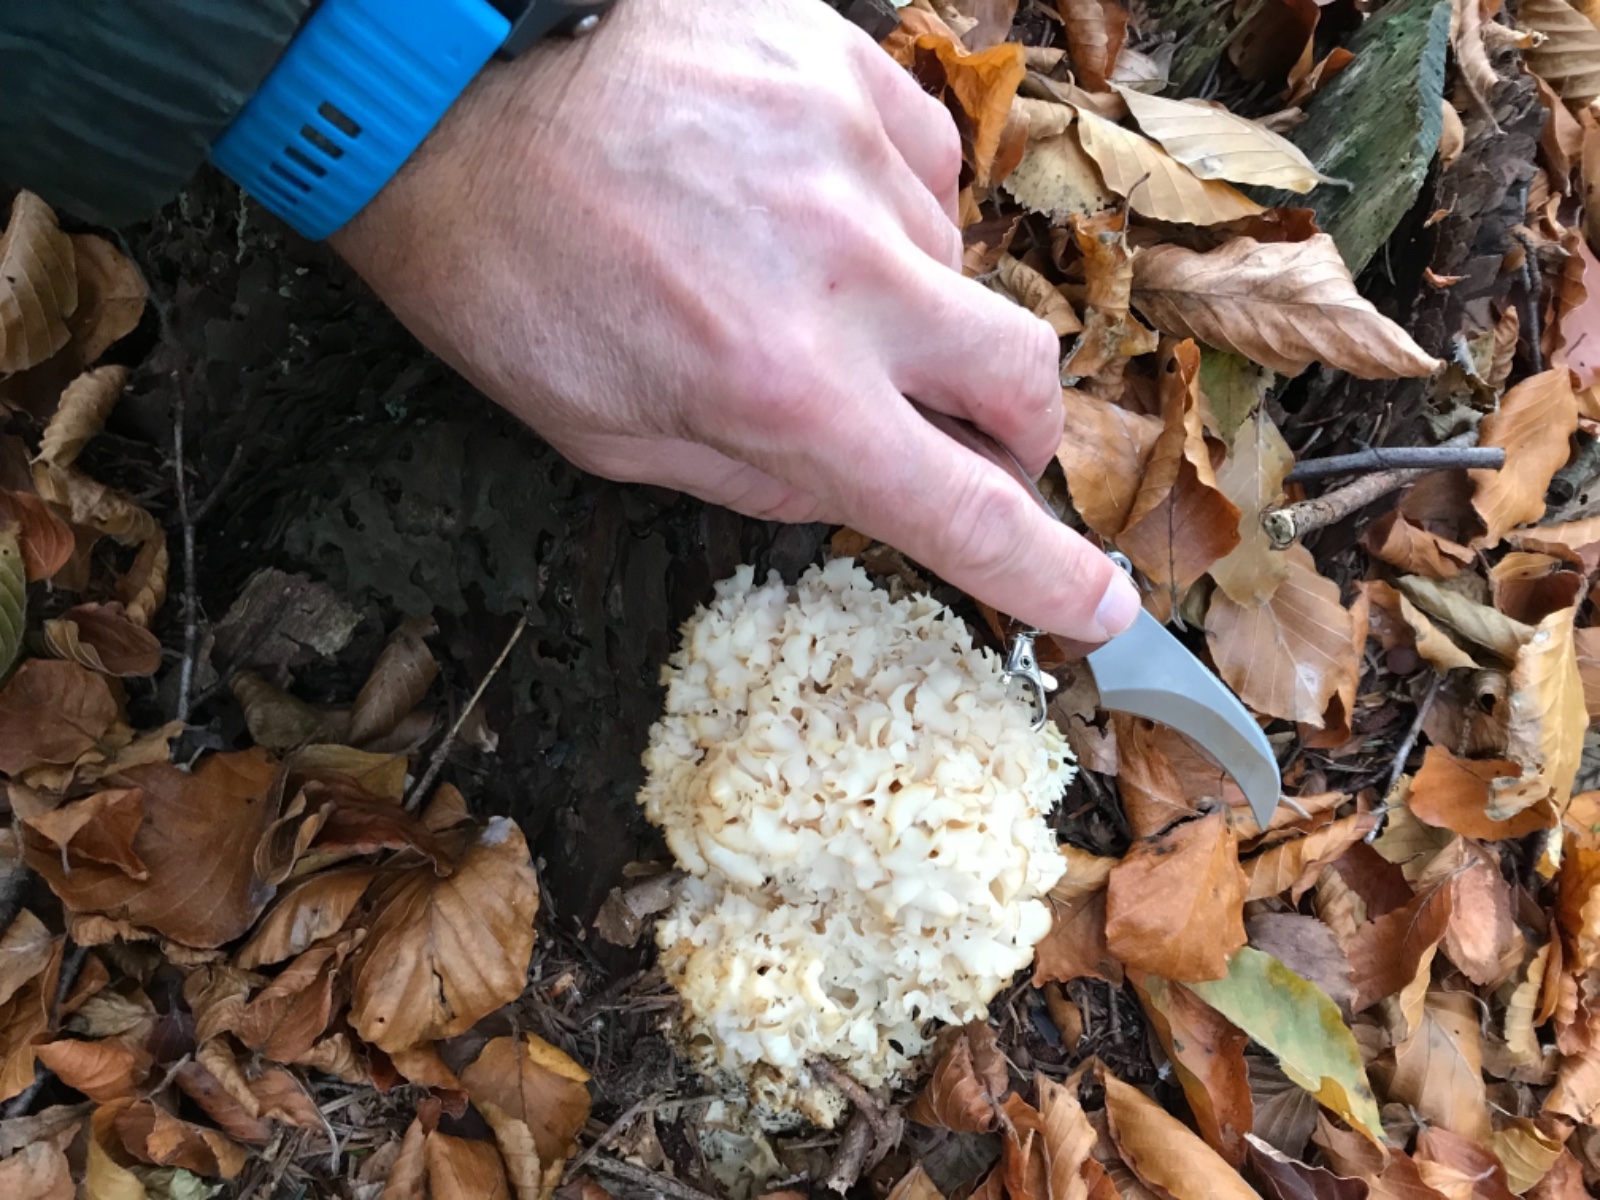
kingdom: Fungi
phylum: Basidiomycota
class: Agaricomycetes
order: Polyporales
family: Sparassidaceae
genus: Sparassis
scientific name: Sparassis crispa
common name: kruset blomkålssvamp
